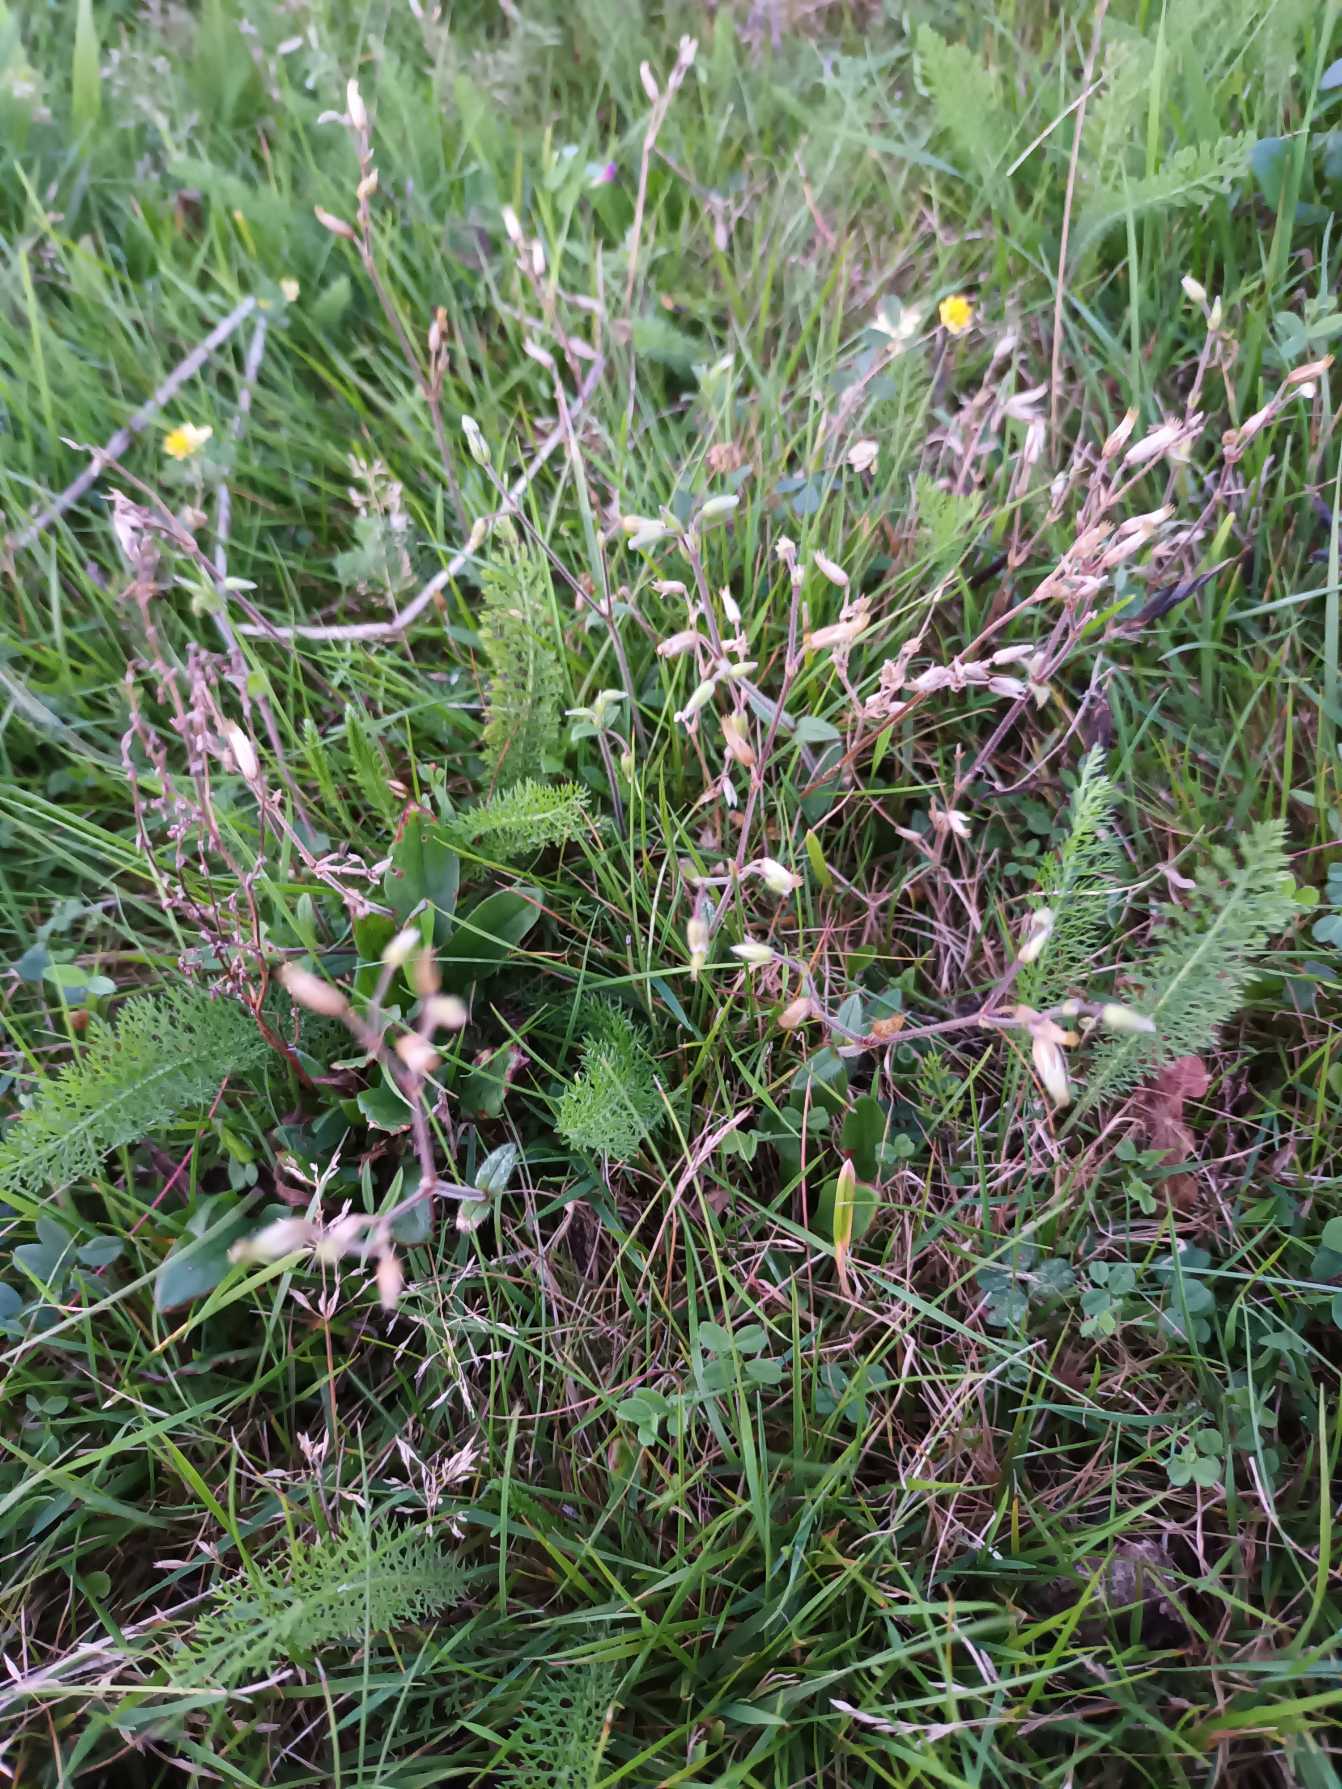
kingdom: Plantae
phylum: Tracheophyta
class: Magnoliopsida
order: Caryophyllales
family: Caryophyllaceae
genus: Cerastium
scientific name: Cerastium fontanum
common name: Almindelig hønsetarm
